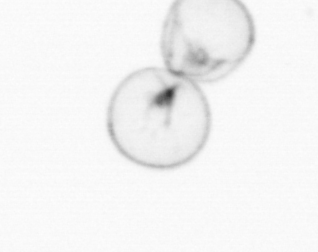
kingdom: Chromista
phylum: Myzozoa
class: Dinophyceae
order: Noctilucales
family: Noctilucaceae
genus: Noctiluca
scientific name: Noctiluca scintillans
